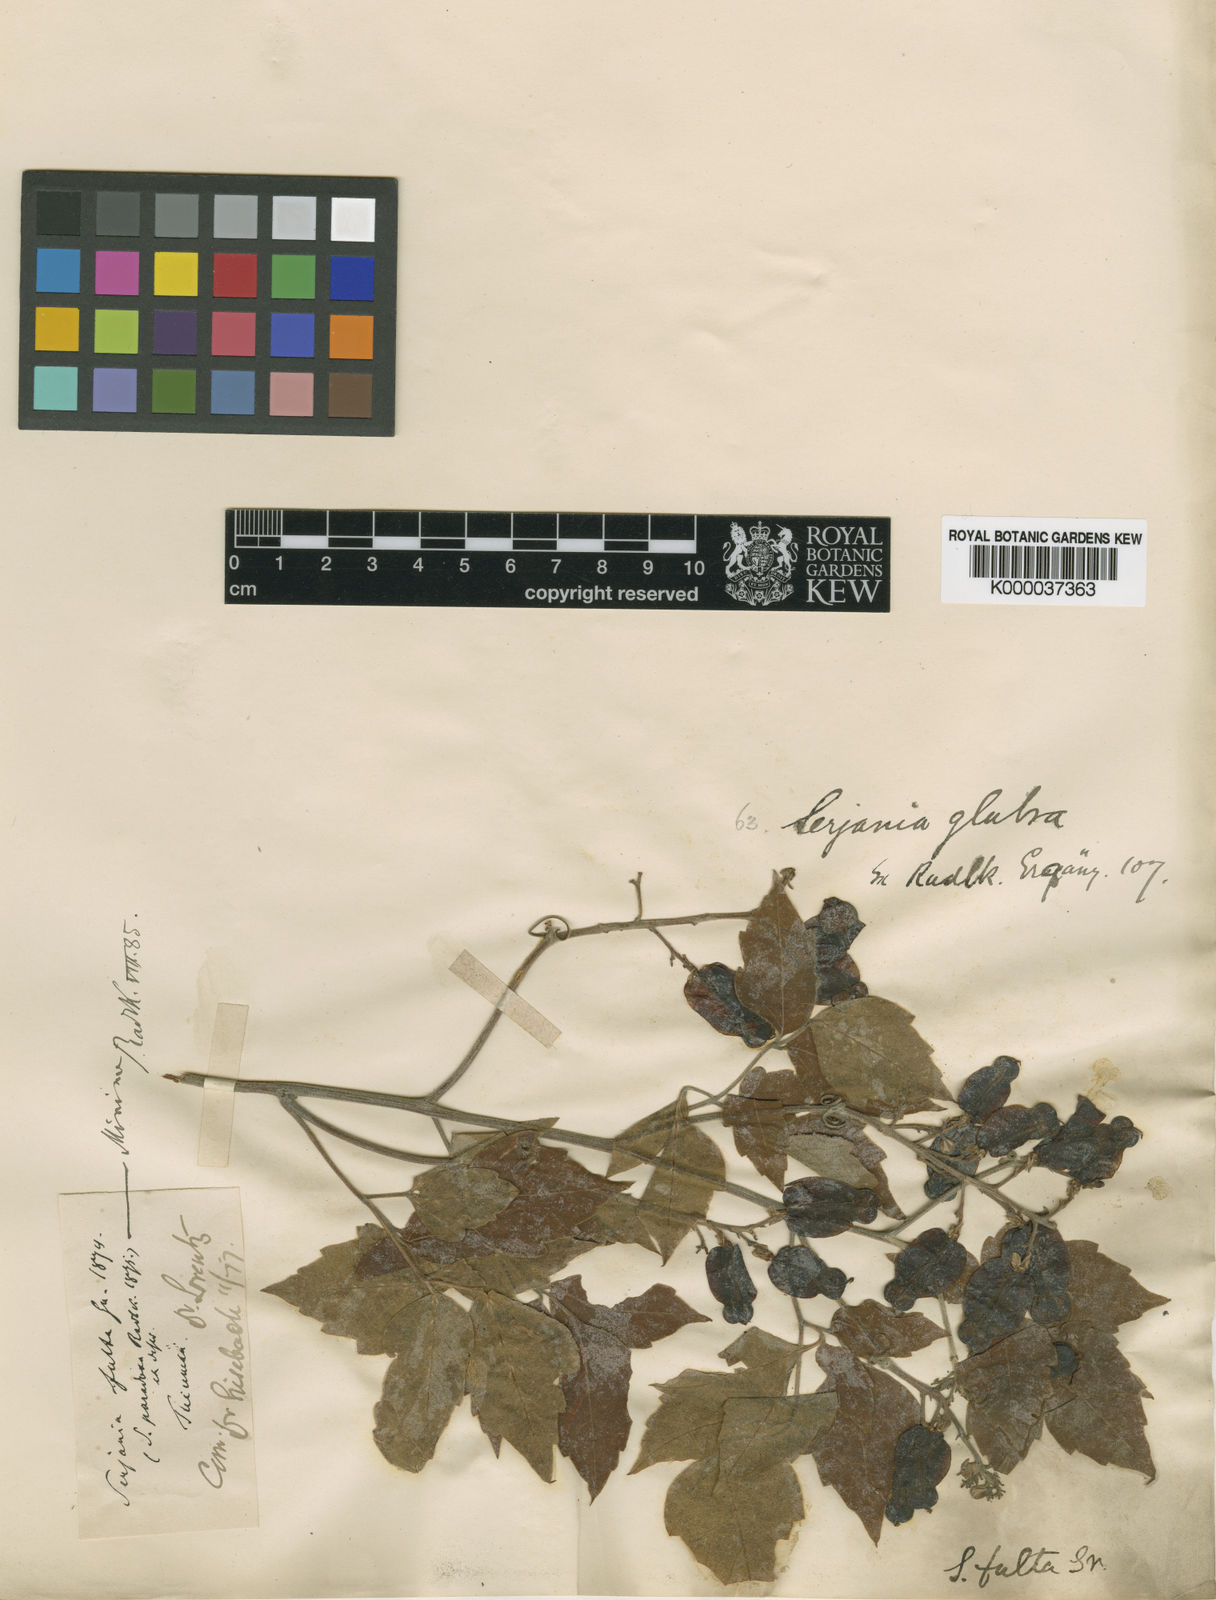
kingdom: Plantae
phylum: Tracheophyta
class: Magnoliopsida
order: Sapindales
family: Sapindaceae
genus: Serjania
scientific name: Serjania glabrata
